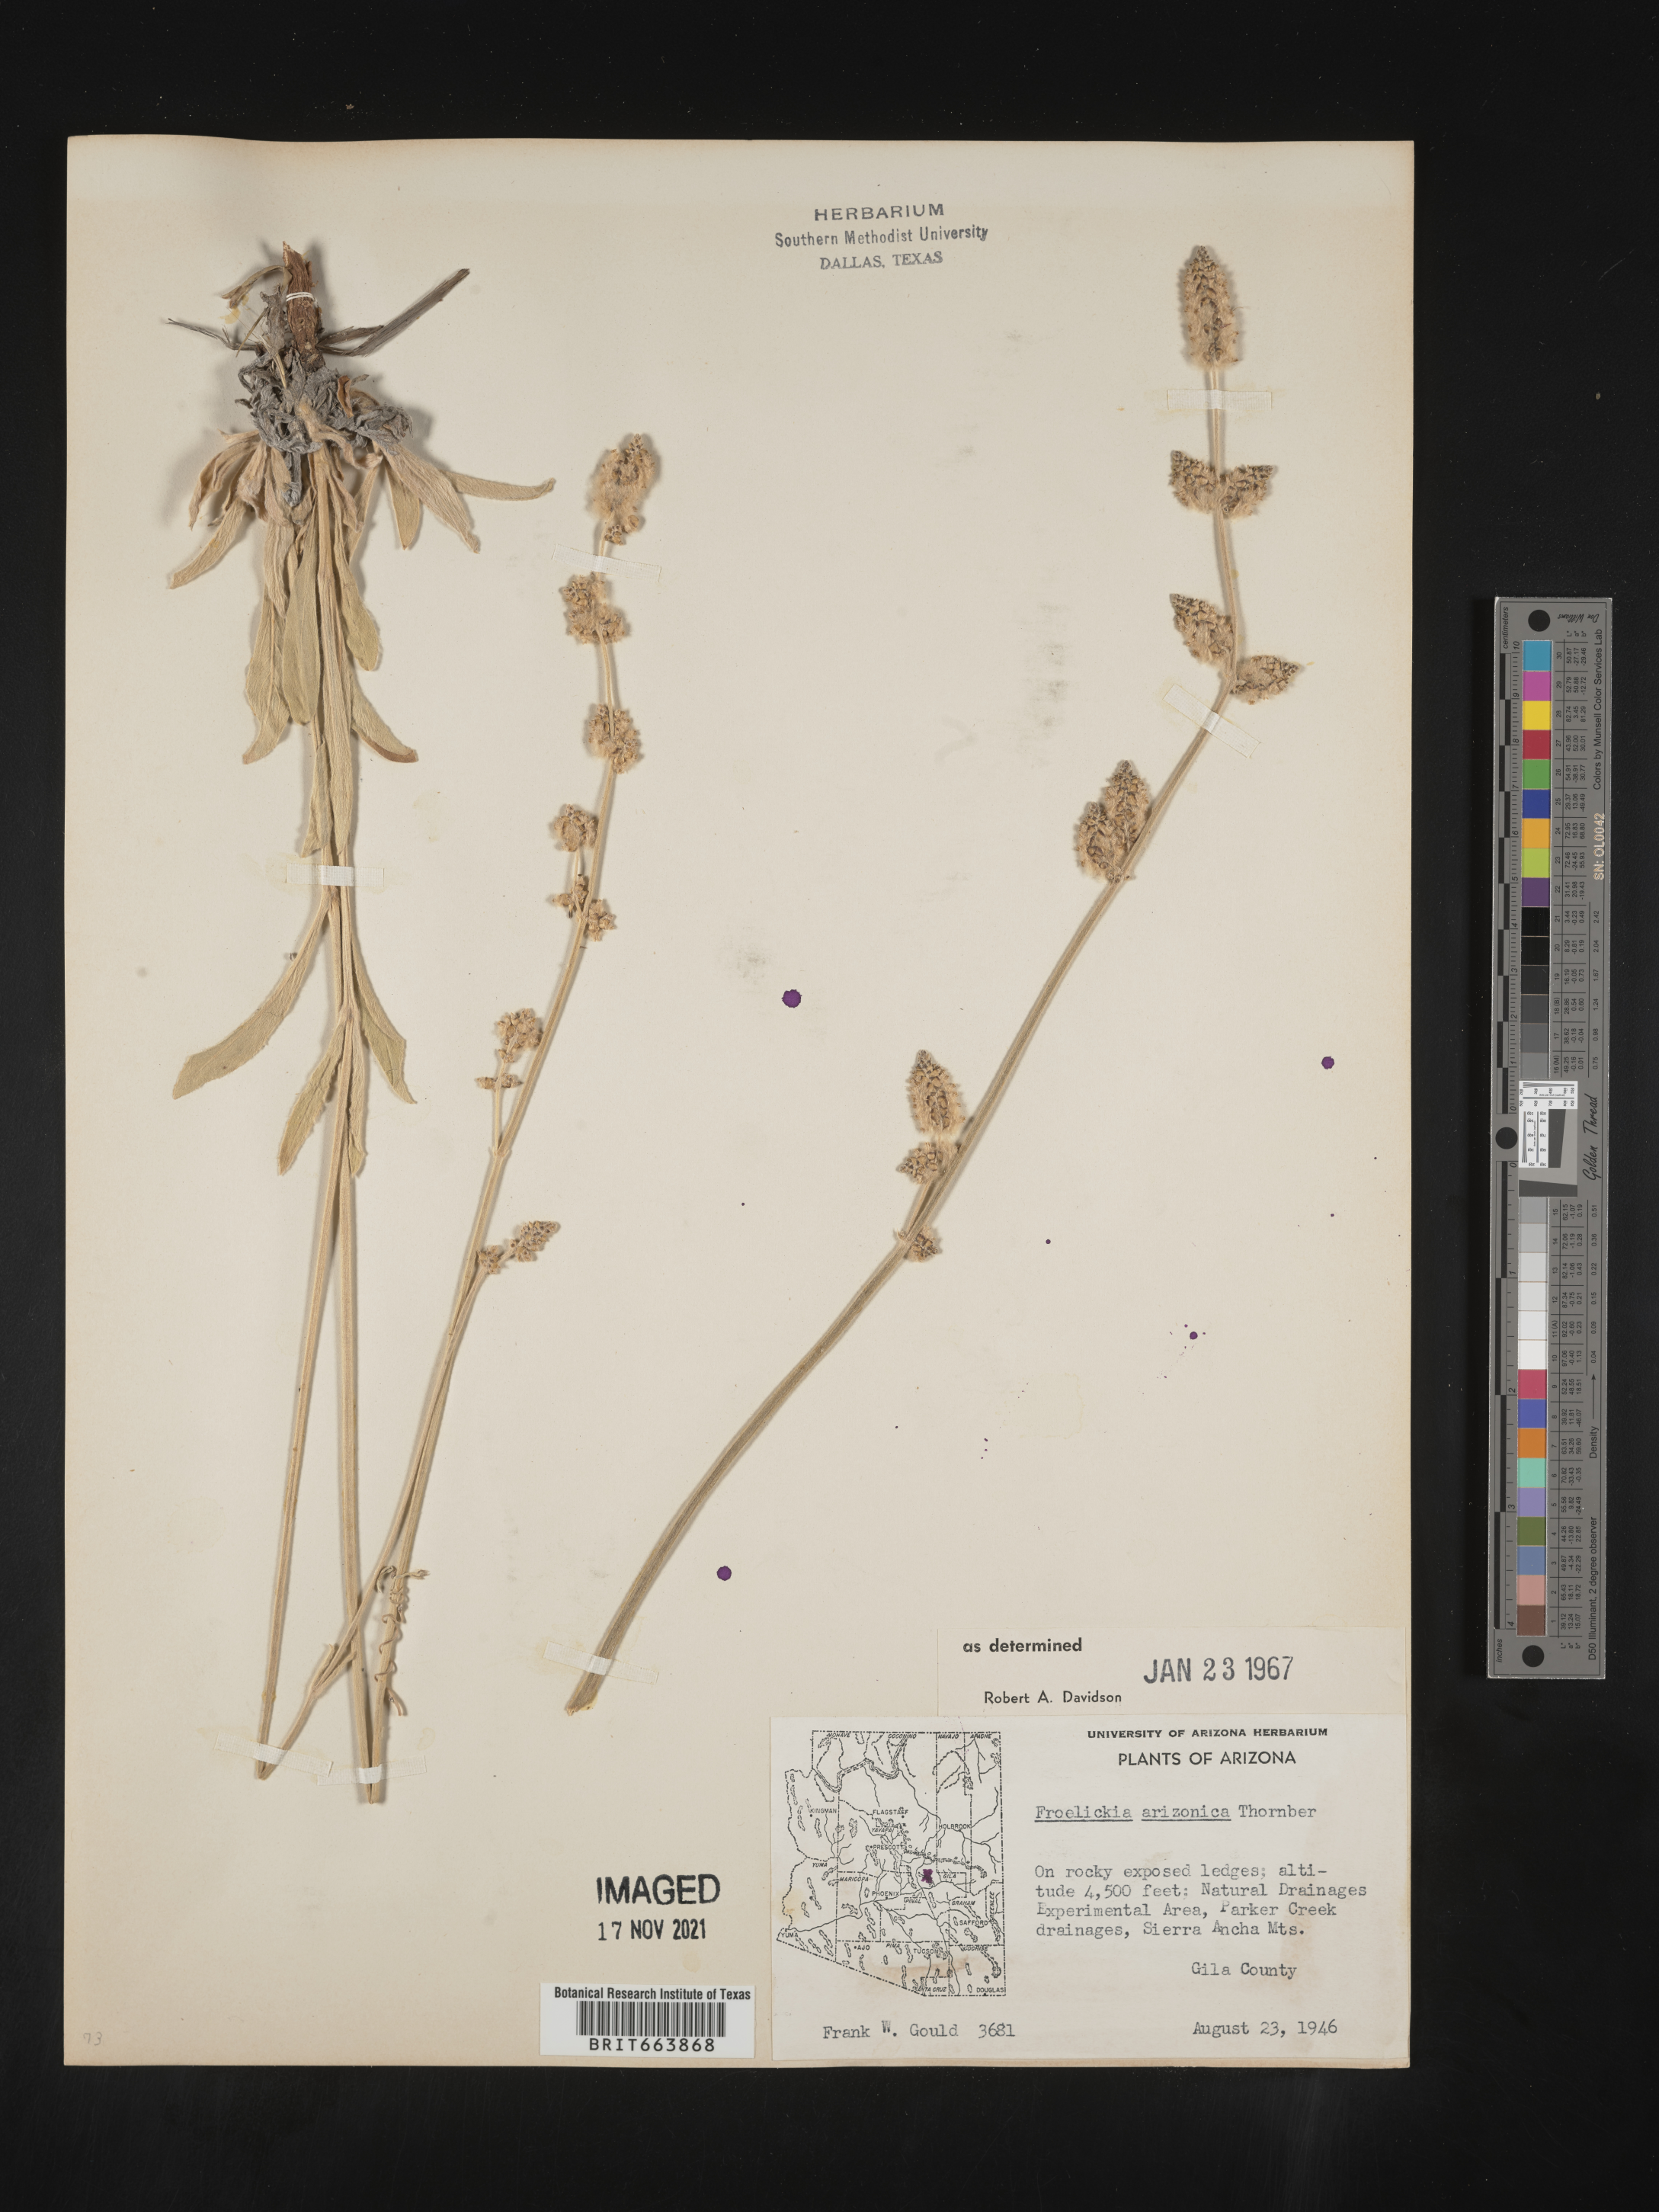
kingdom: Plantae
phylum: Tracheophyta
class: Magnoliopsida
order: Caryophyllales
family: Amaranthaceae
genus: Froelichia
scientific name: Froelichia
